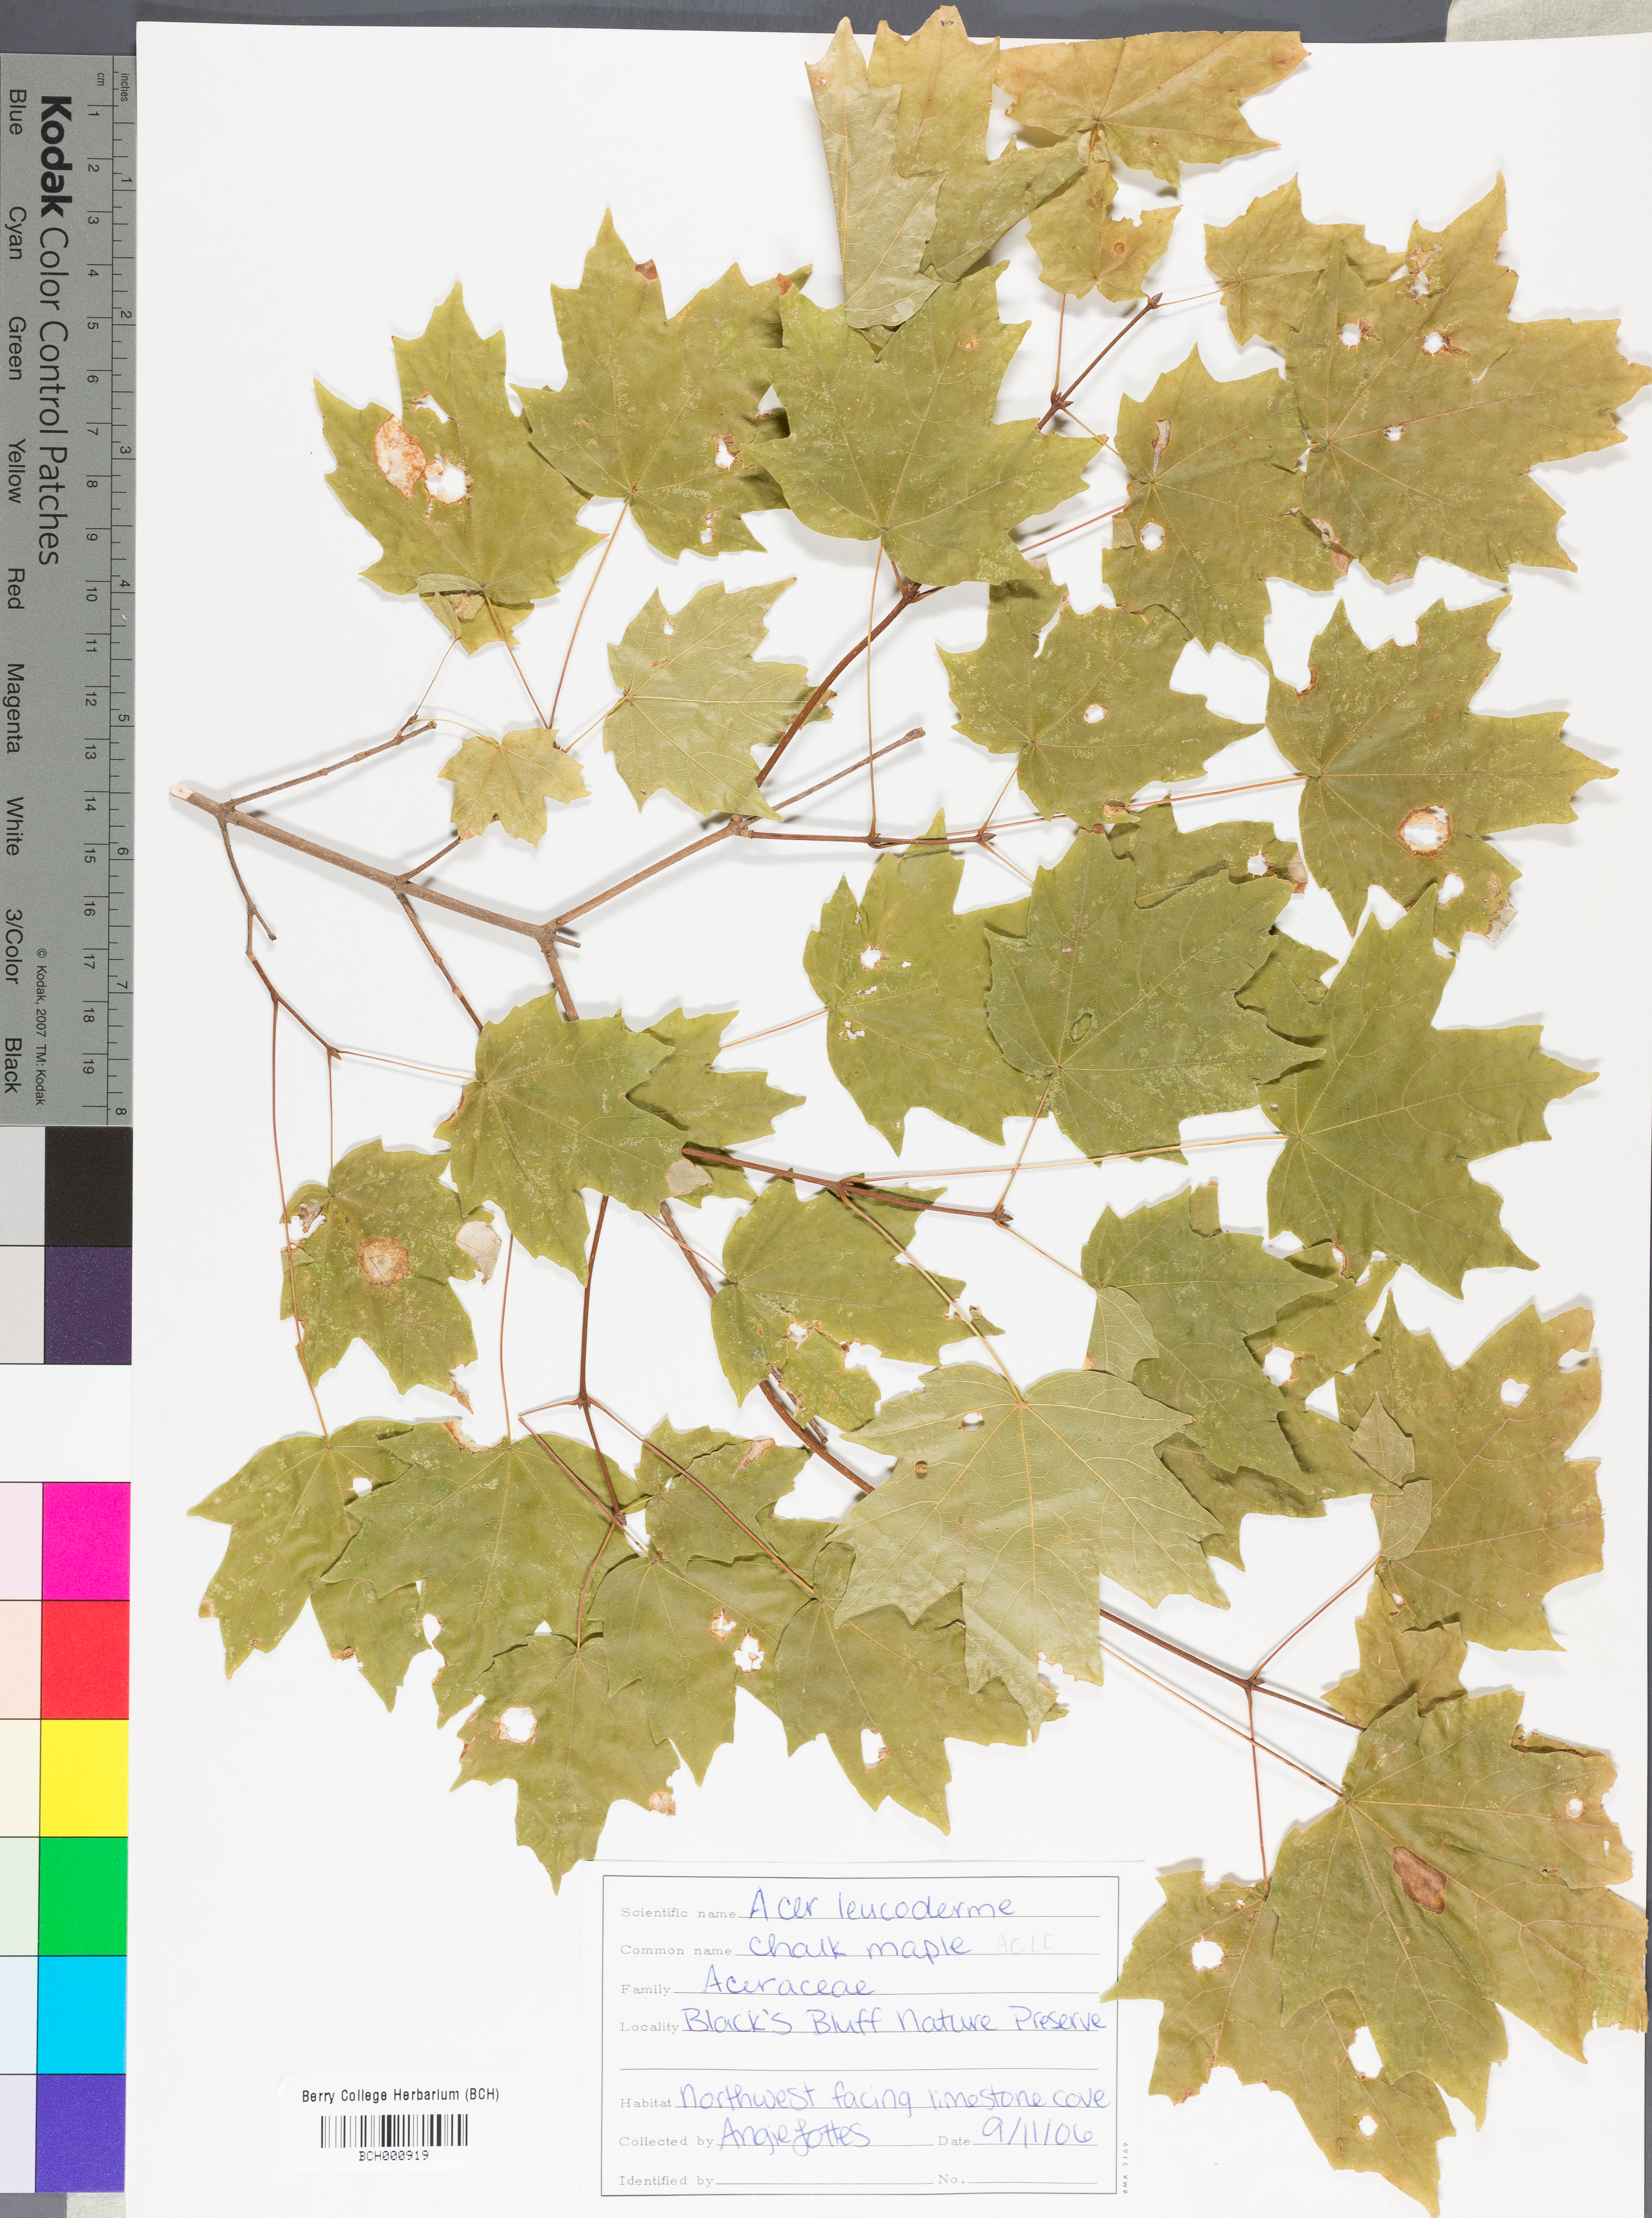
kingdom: Plantae
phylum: Tracheophyta
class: Magnoliopsida
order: Sapindales
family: Sapindaceae
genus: Acer
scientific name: Acer leucoderme
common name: Chalk maple
